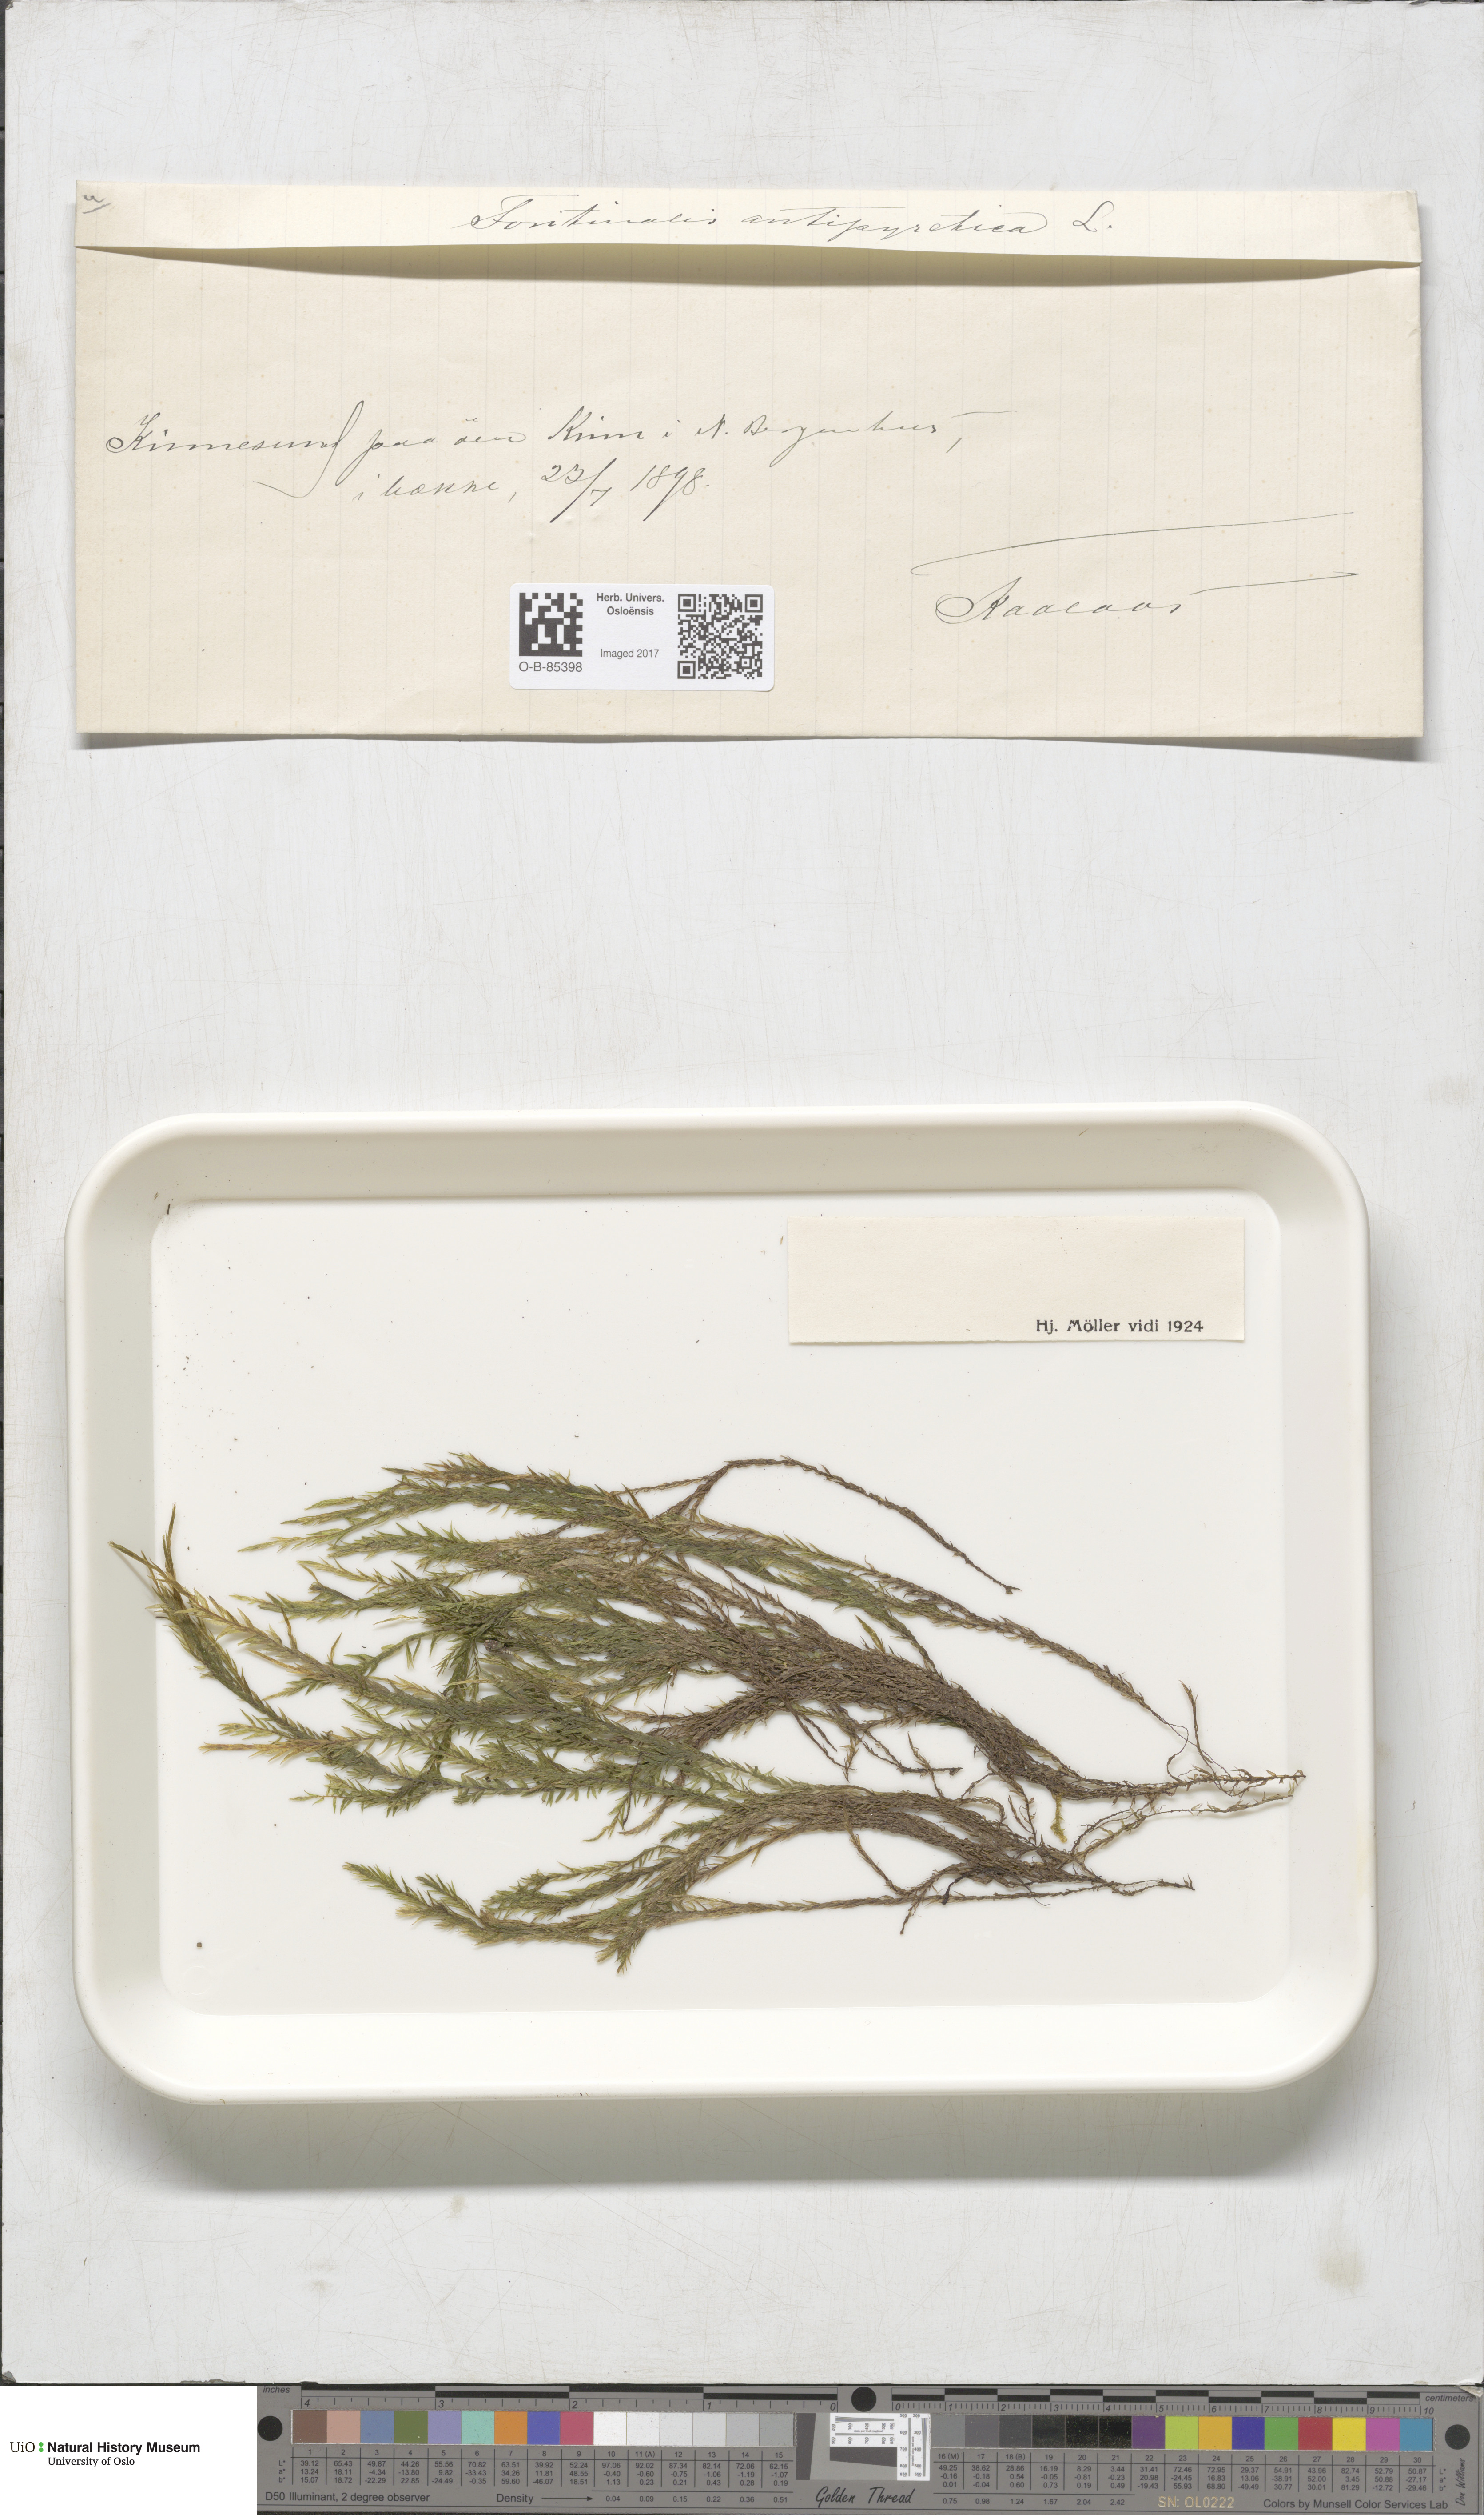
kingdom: Plantae
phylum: Bryophyta
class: Bryopsida
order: Hypnales
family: Fontinalaceae
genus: Fontinalis
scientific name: Fontinalis antipyretica
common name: Greater water-moss
